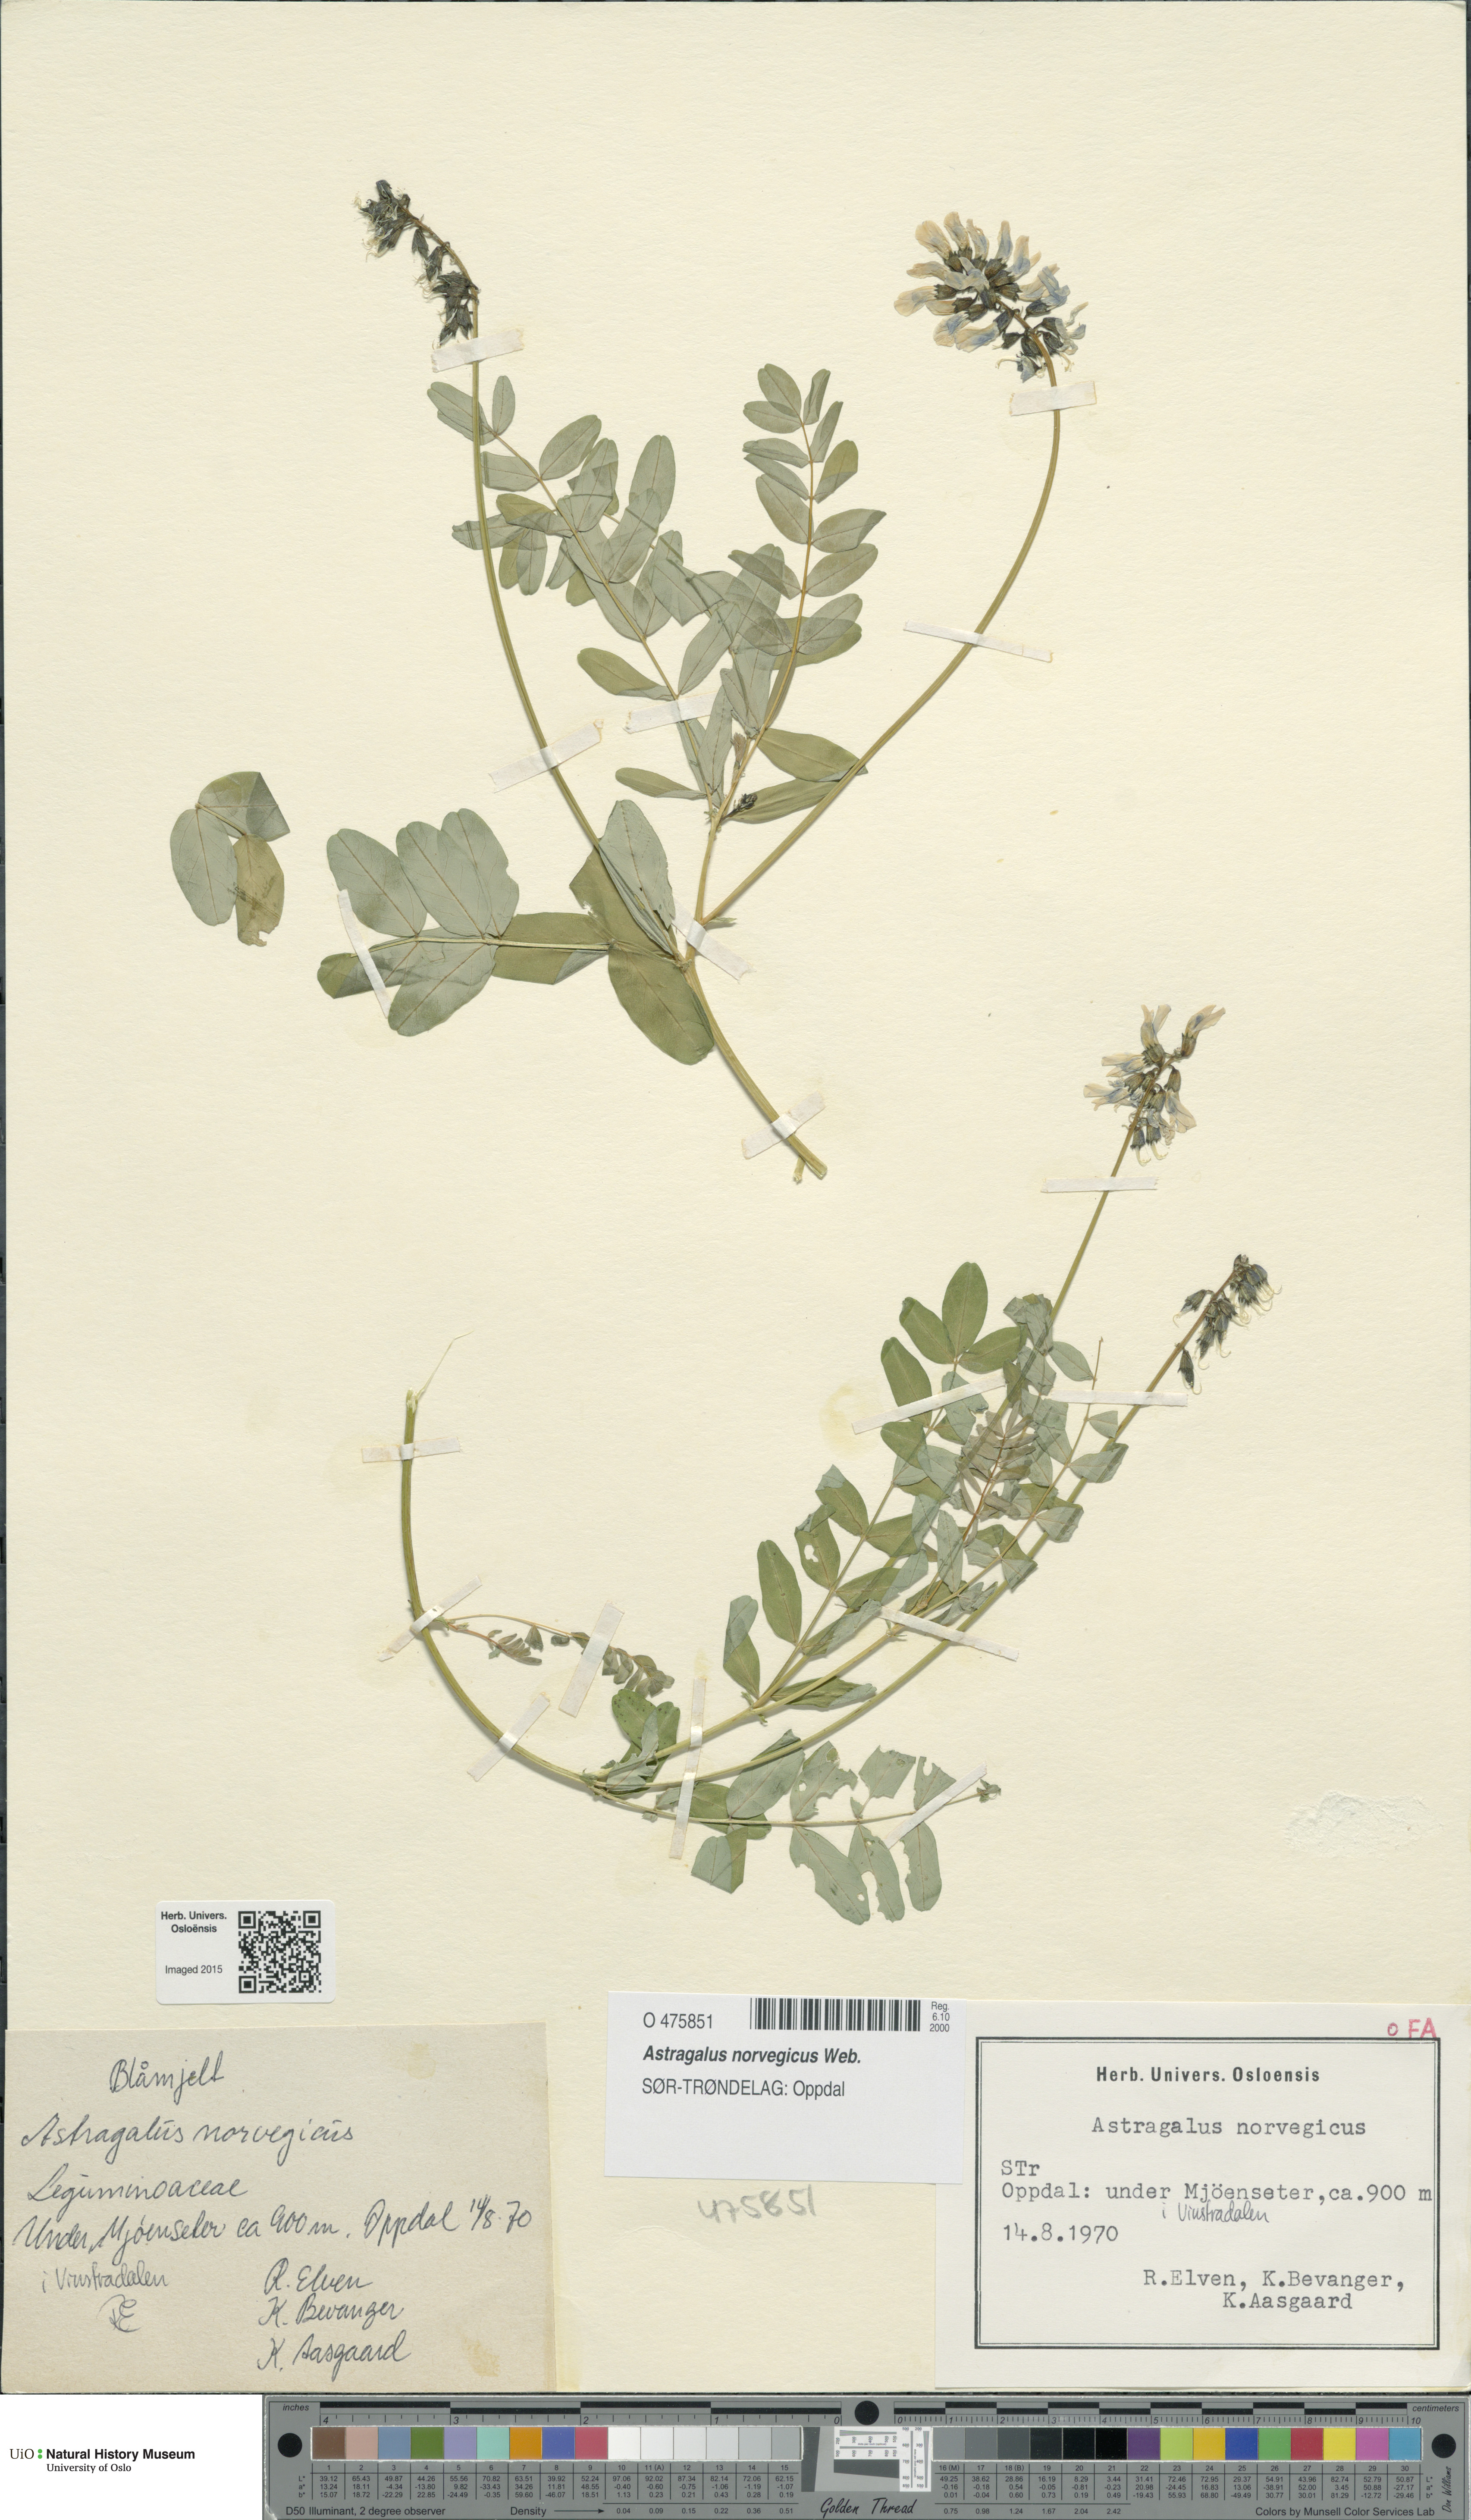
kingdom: Plantae
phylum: Tracheophyta
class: Magnoliopsida
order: Fabales
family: Fabaceae
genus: Astragalus
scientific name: Astragalus norvegicus
